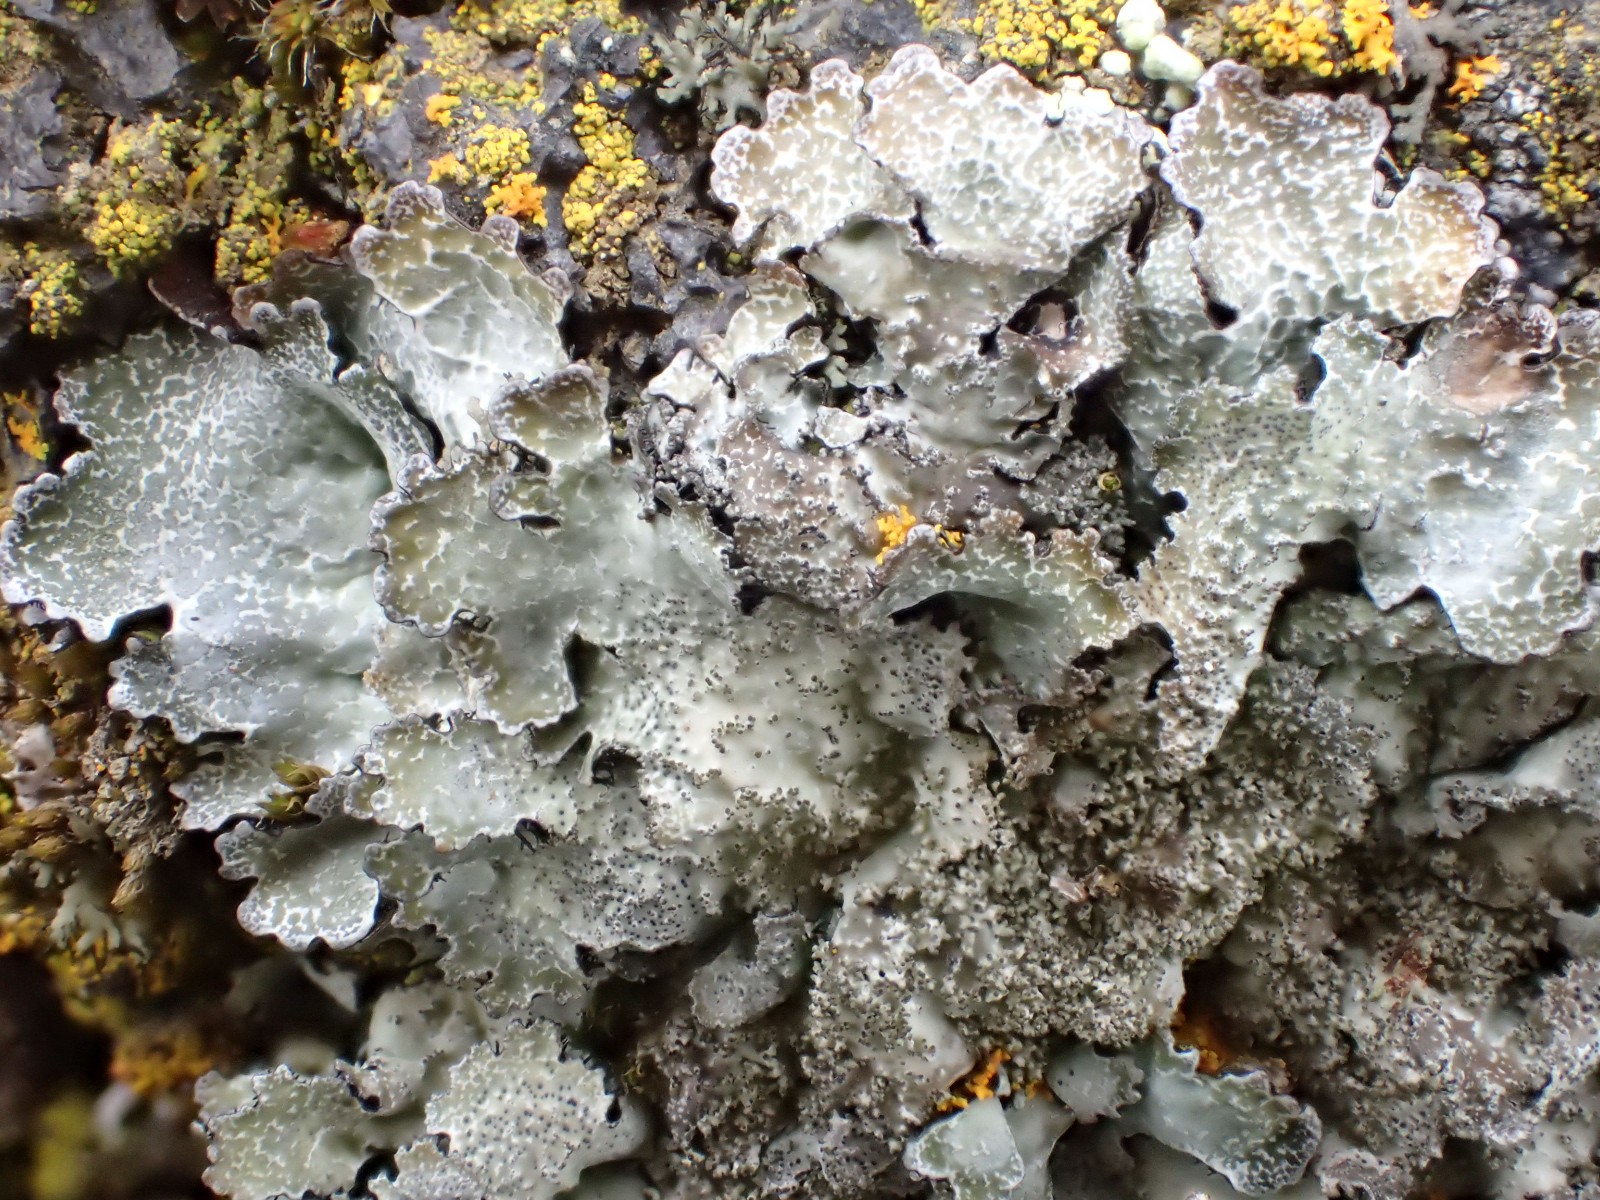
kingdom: Fungi
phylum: Ascomycota
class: Lecanoromycetes
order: Lecanorales
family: Parmeliaceae
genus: Parmelia
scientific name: Parmelia saxatilis
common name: farve-skållav
